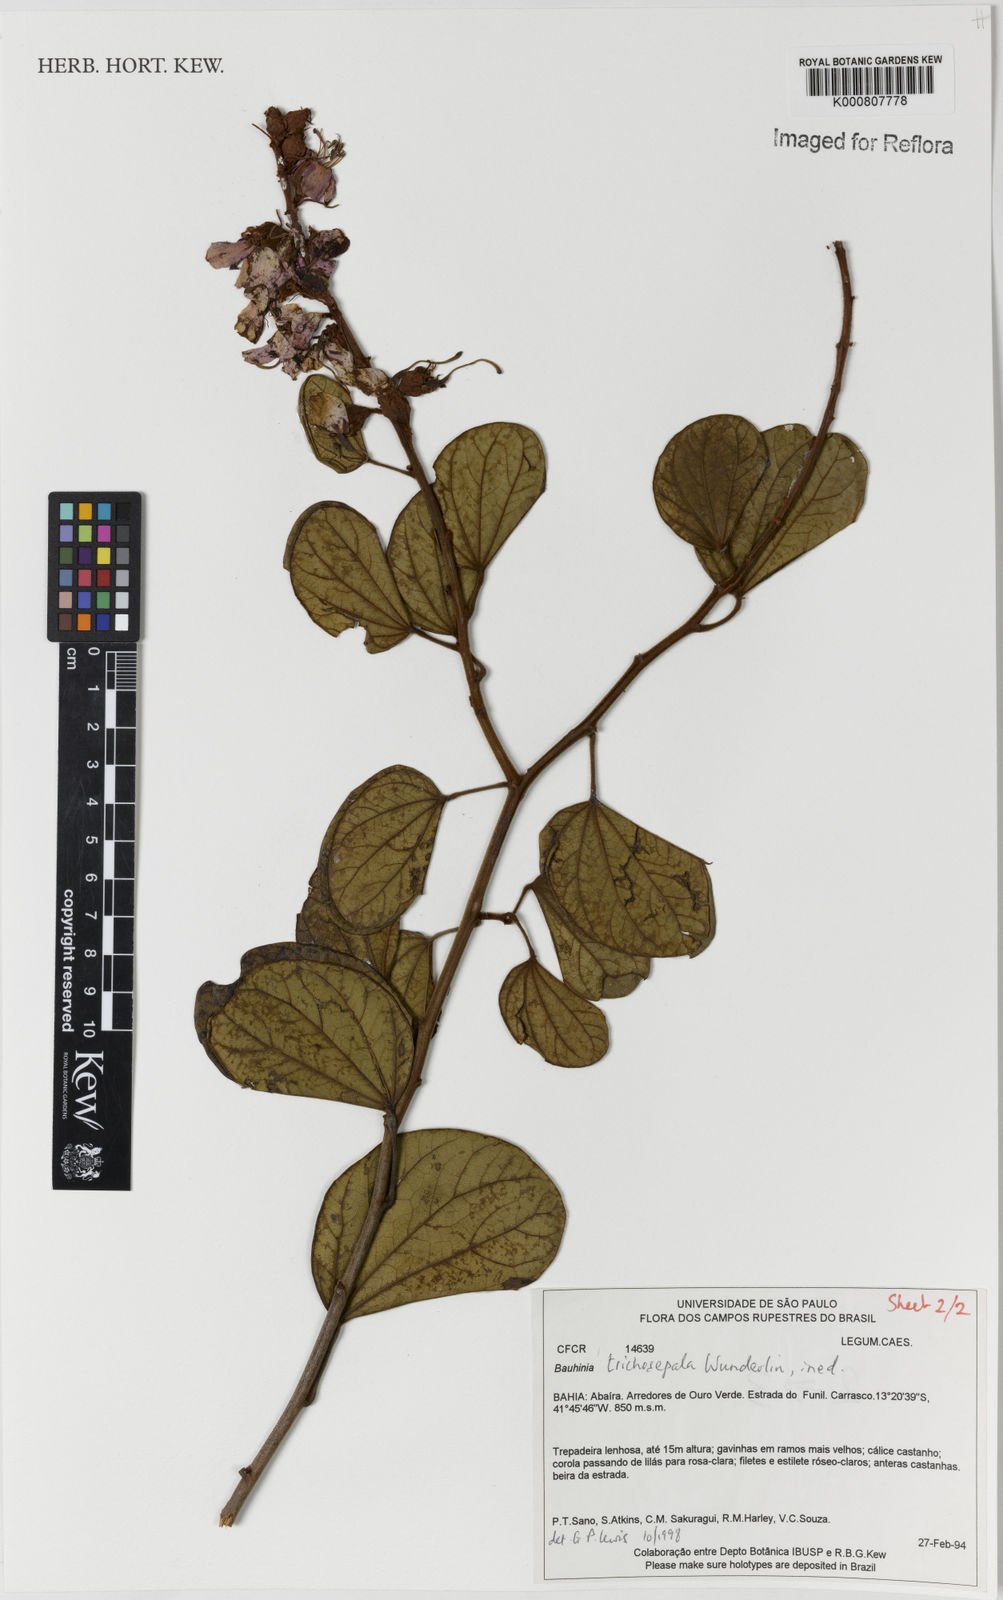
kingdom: Plantae
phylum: Tracheophyta
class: Magnoliopsida
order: Fabales
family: Fabaceae
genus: Schnella
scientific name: Schnella trichosepala
